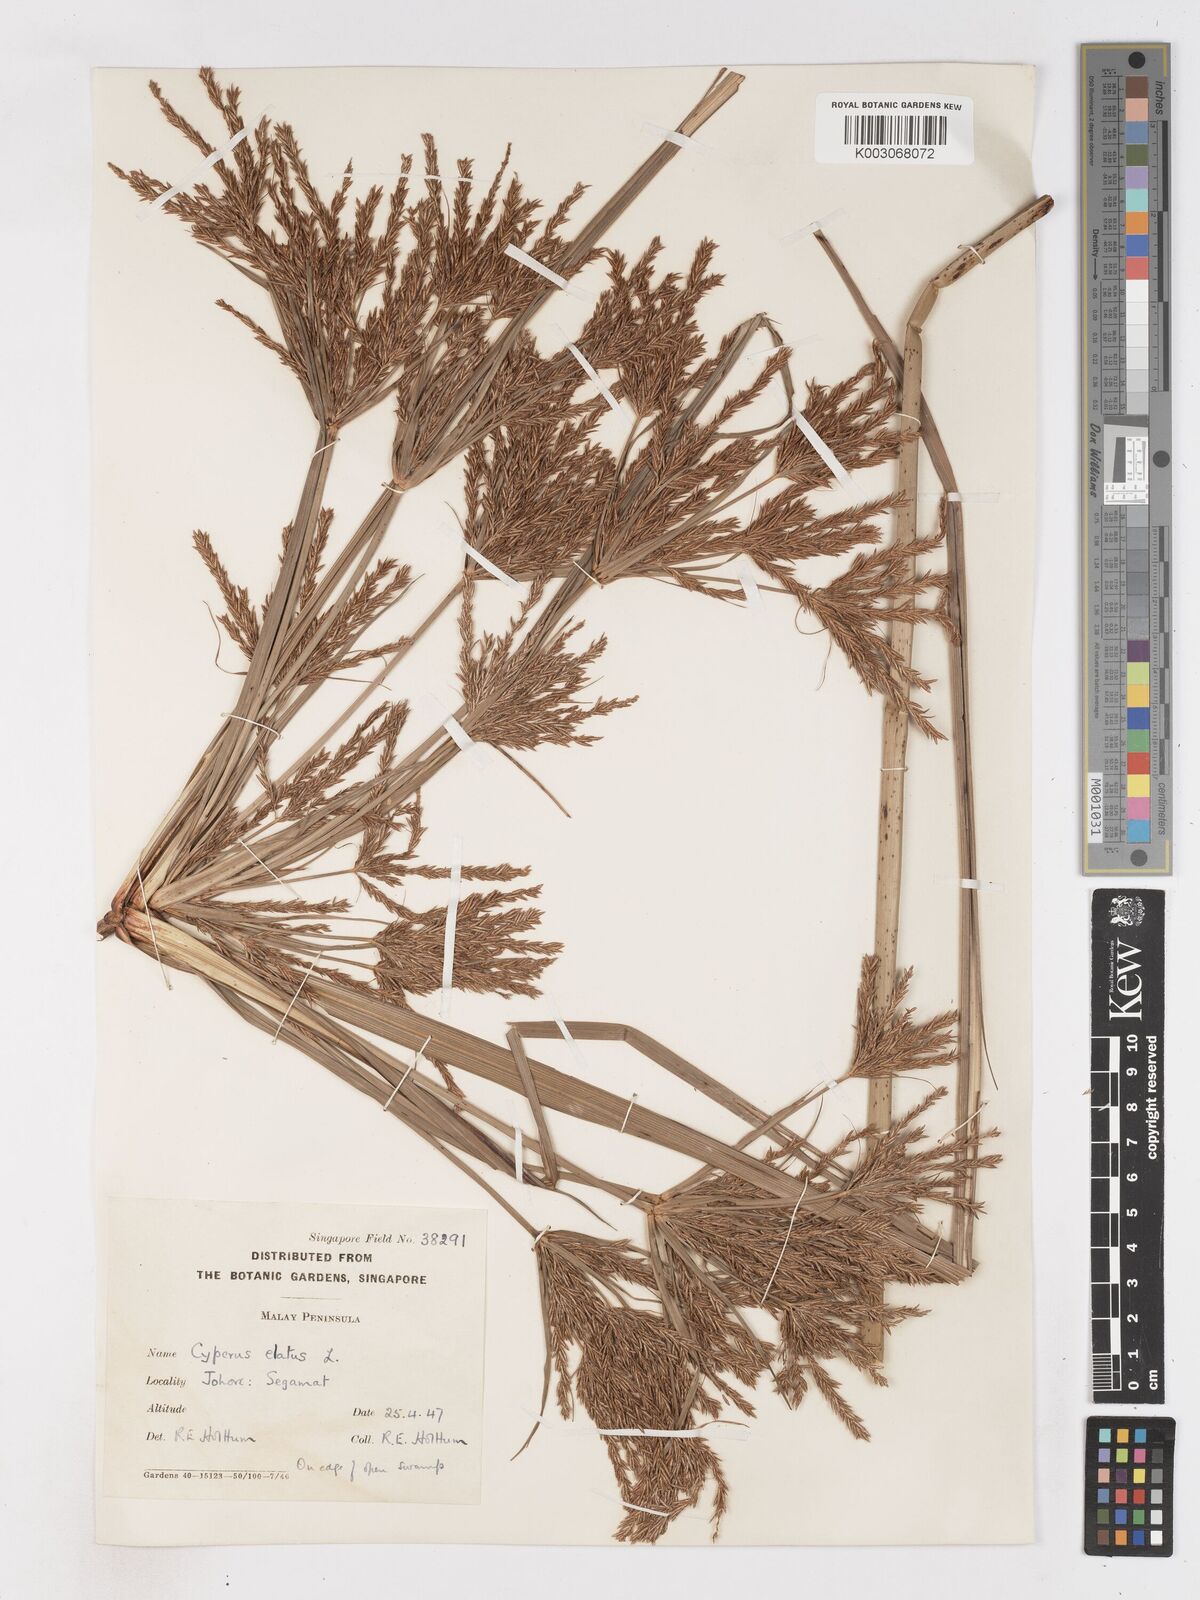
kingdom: Plantae
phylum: Tracheophyta
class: Liliopsida
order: Poales
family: Cyperaceae
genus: Cyperus
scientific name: Cyperus elatus
